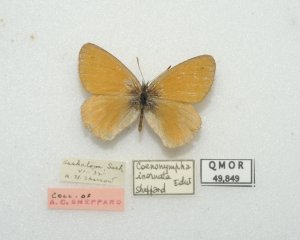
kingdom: Animalia
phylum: Arthropoda
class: Insecta
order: Lepidoptera
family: Nymphalidae
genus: Coenonympha
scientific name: Coenonympha tullia
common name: Large Heath
